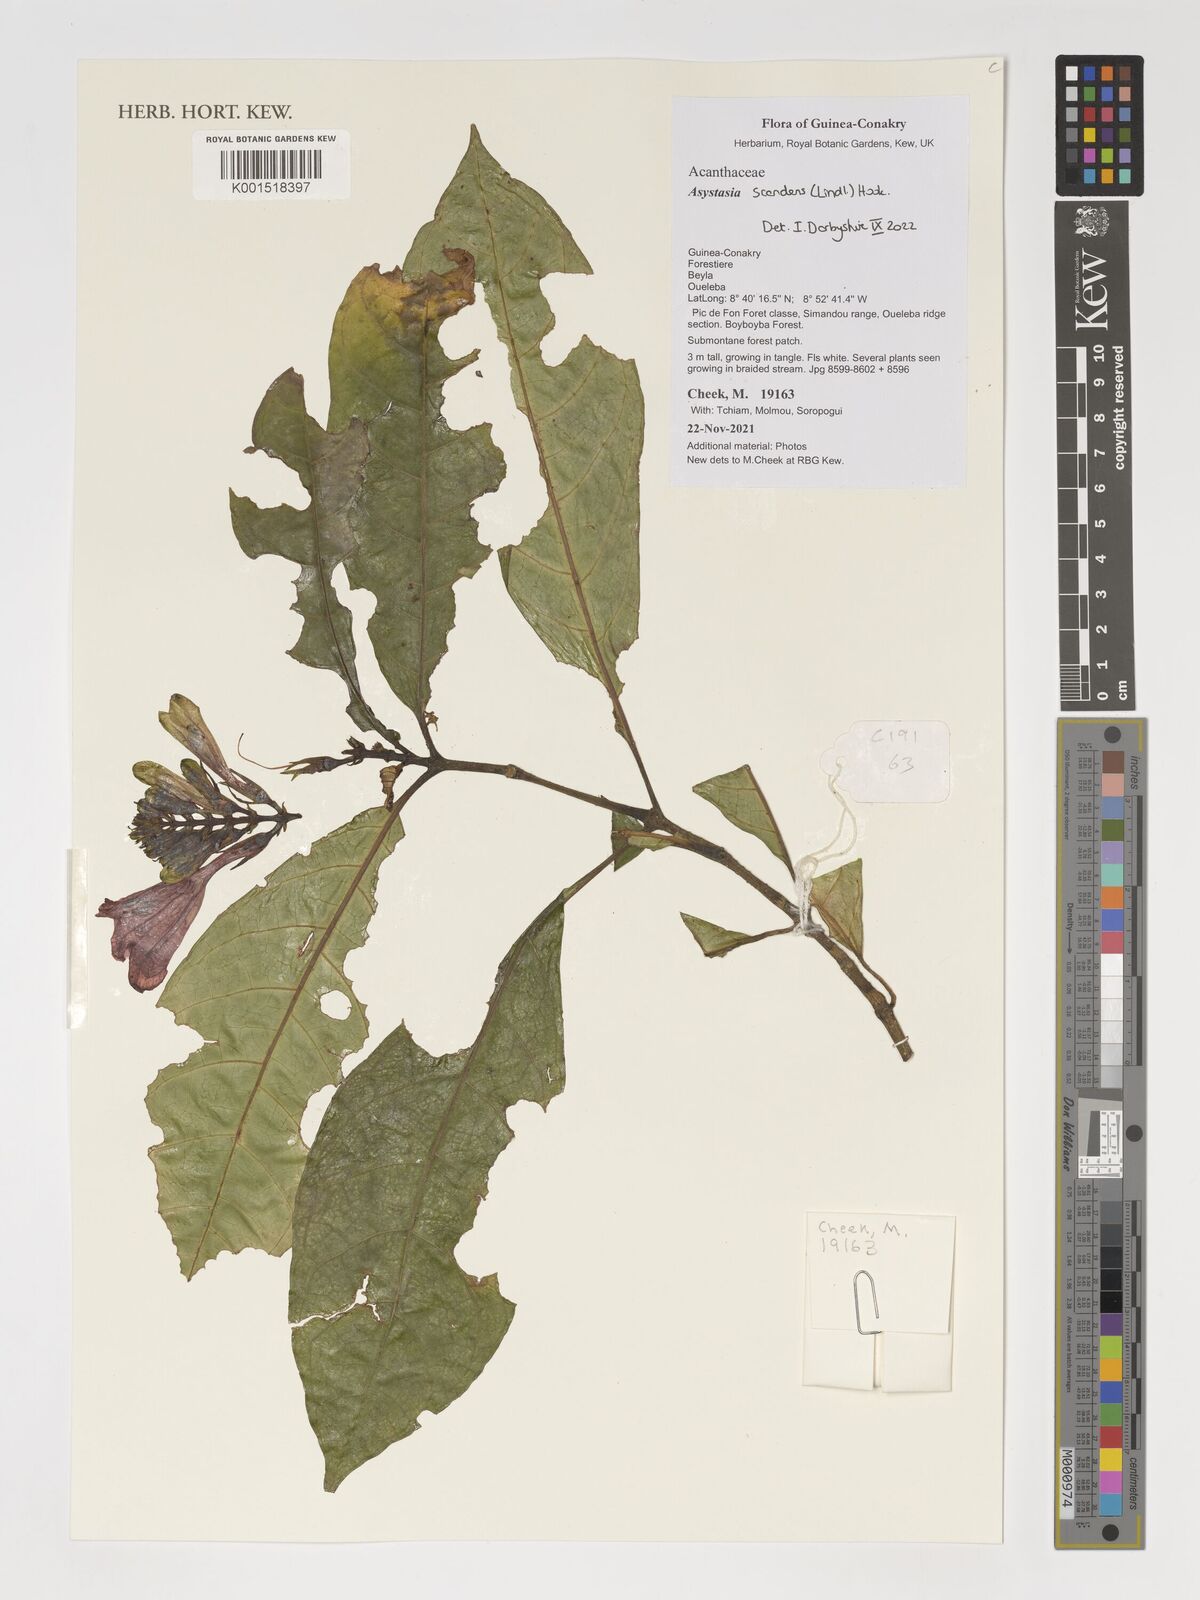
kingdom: Plantae
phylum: Tracheophyta
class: Magnoliopsida
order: Lamiales
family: Acanthaceae
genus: Asystasia
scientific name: Asystasia scandens
